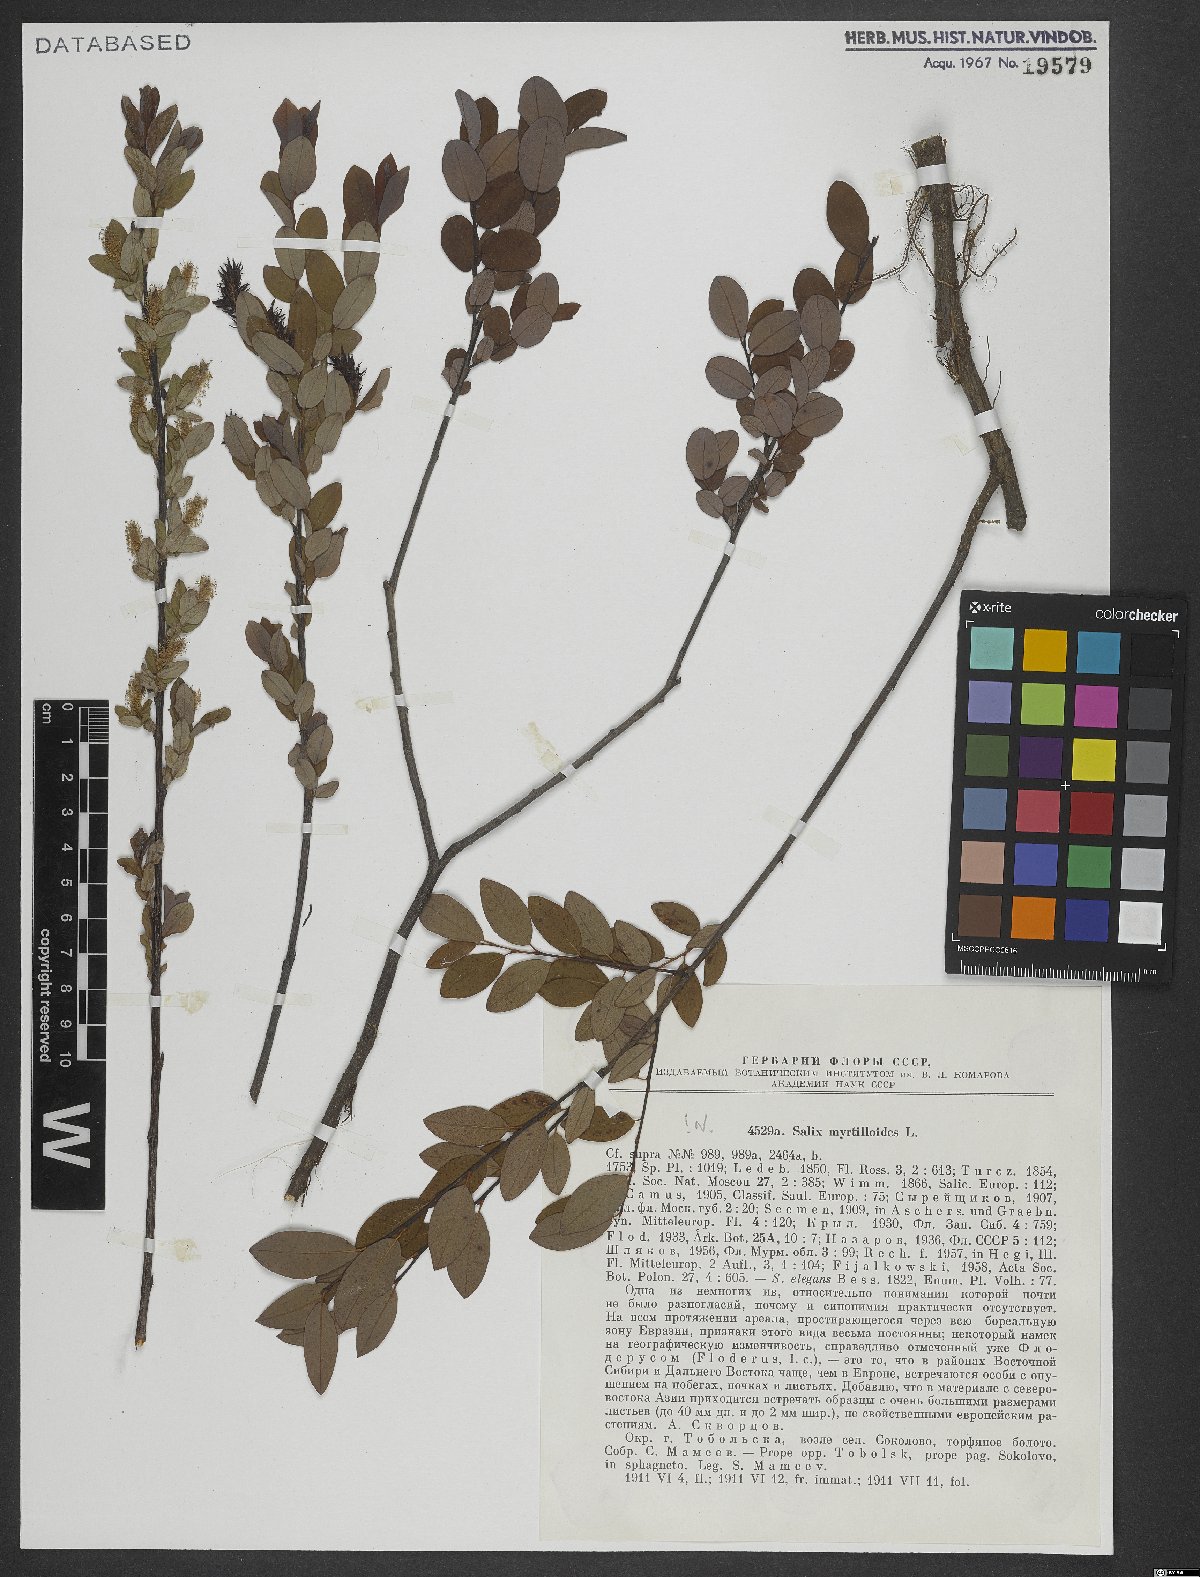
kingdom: Plantae
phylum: Tracheophyta
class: Magnoliopsida
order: Malpighiales
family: Salicaceae
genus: Salix
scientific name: Salix myrtilloides
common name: Myrtle-leaved willow
